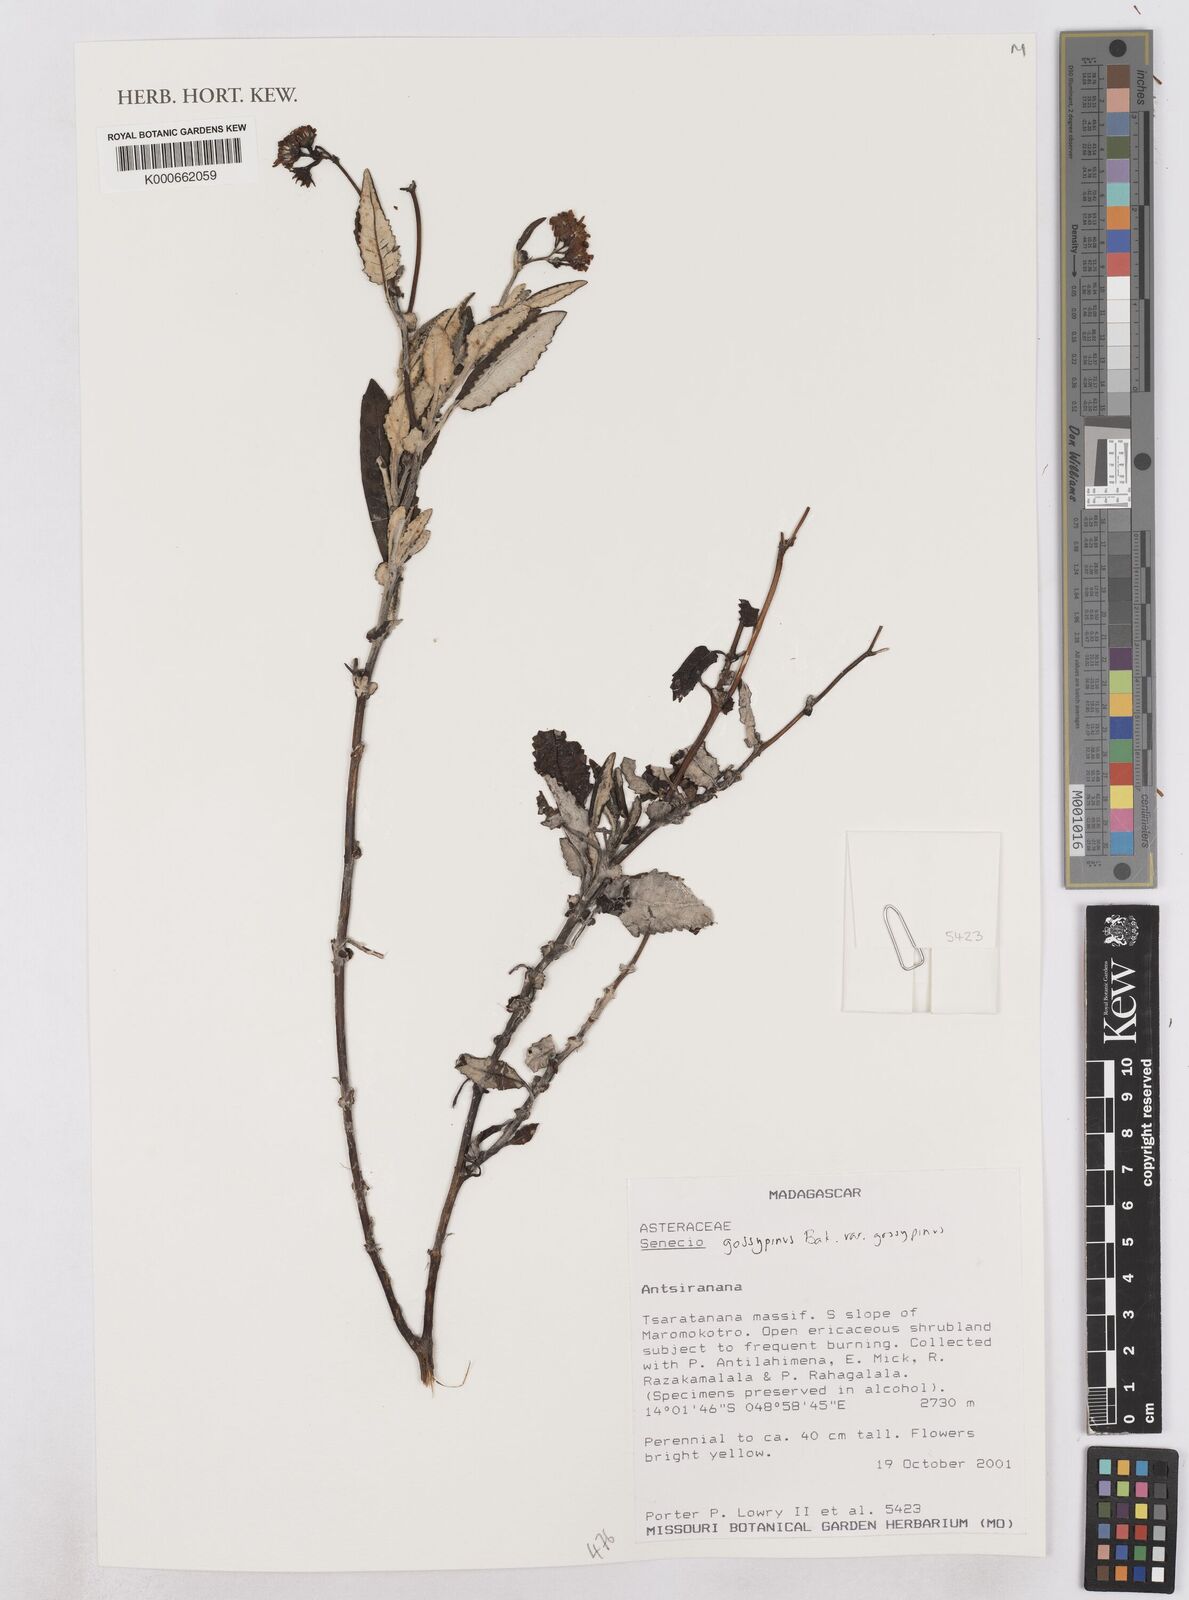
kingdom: Plantae
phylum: Tracheophyta
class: Magnoliopsida
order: Asterales
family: Asteraceae
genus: Senecio
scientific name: Senecio gossypinus
